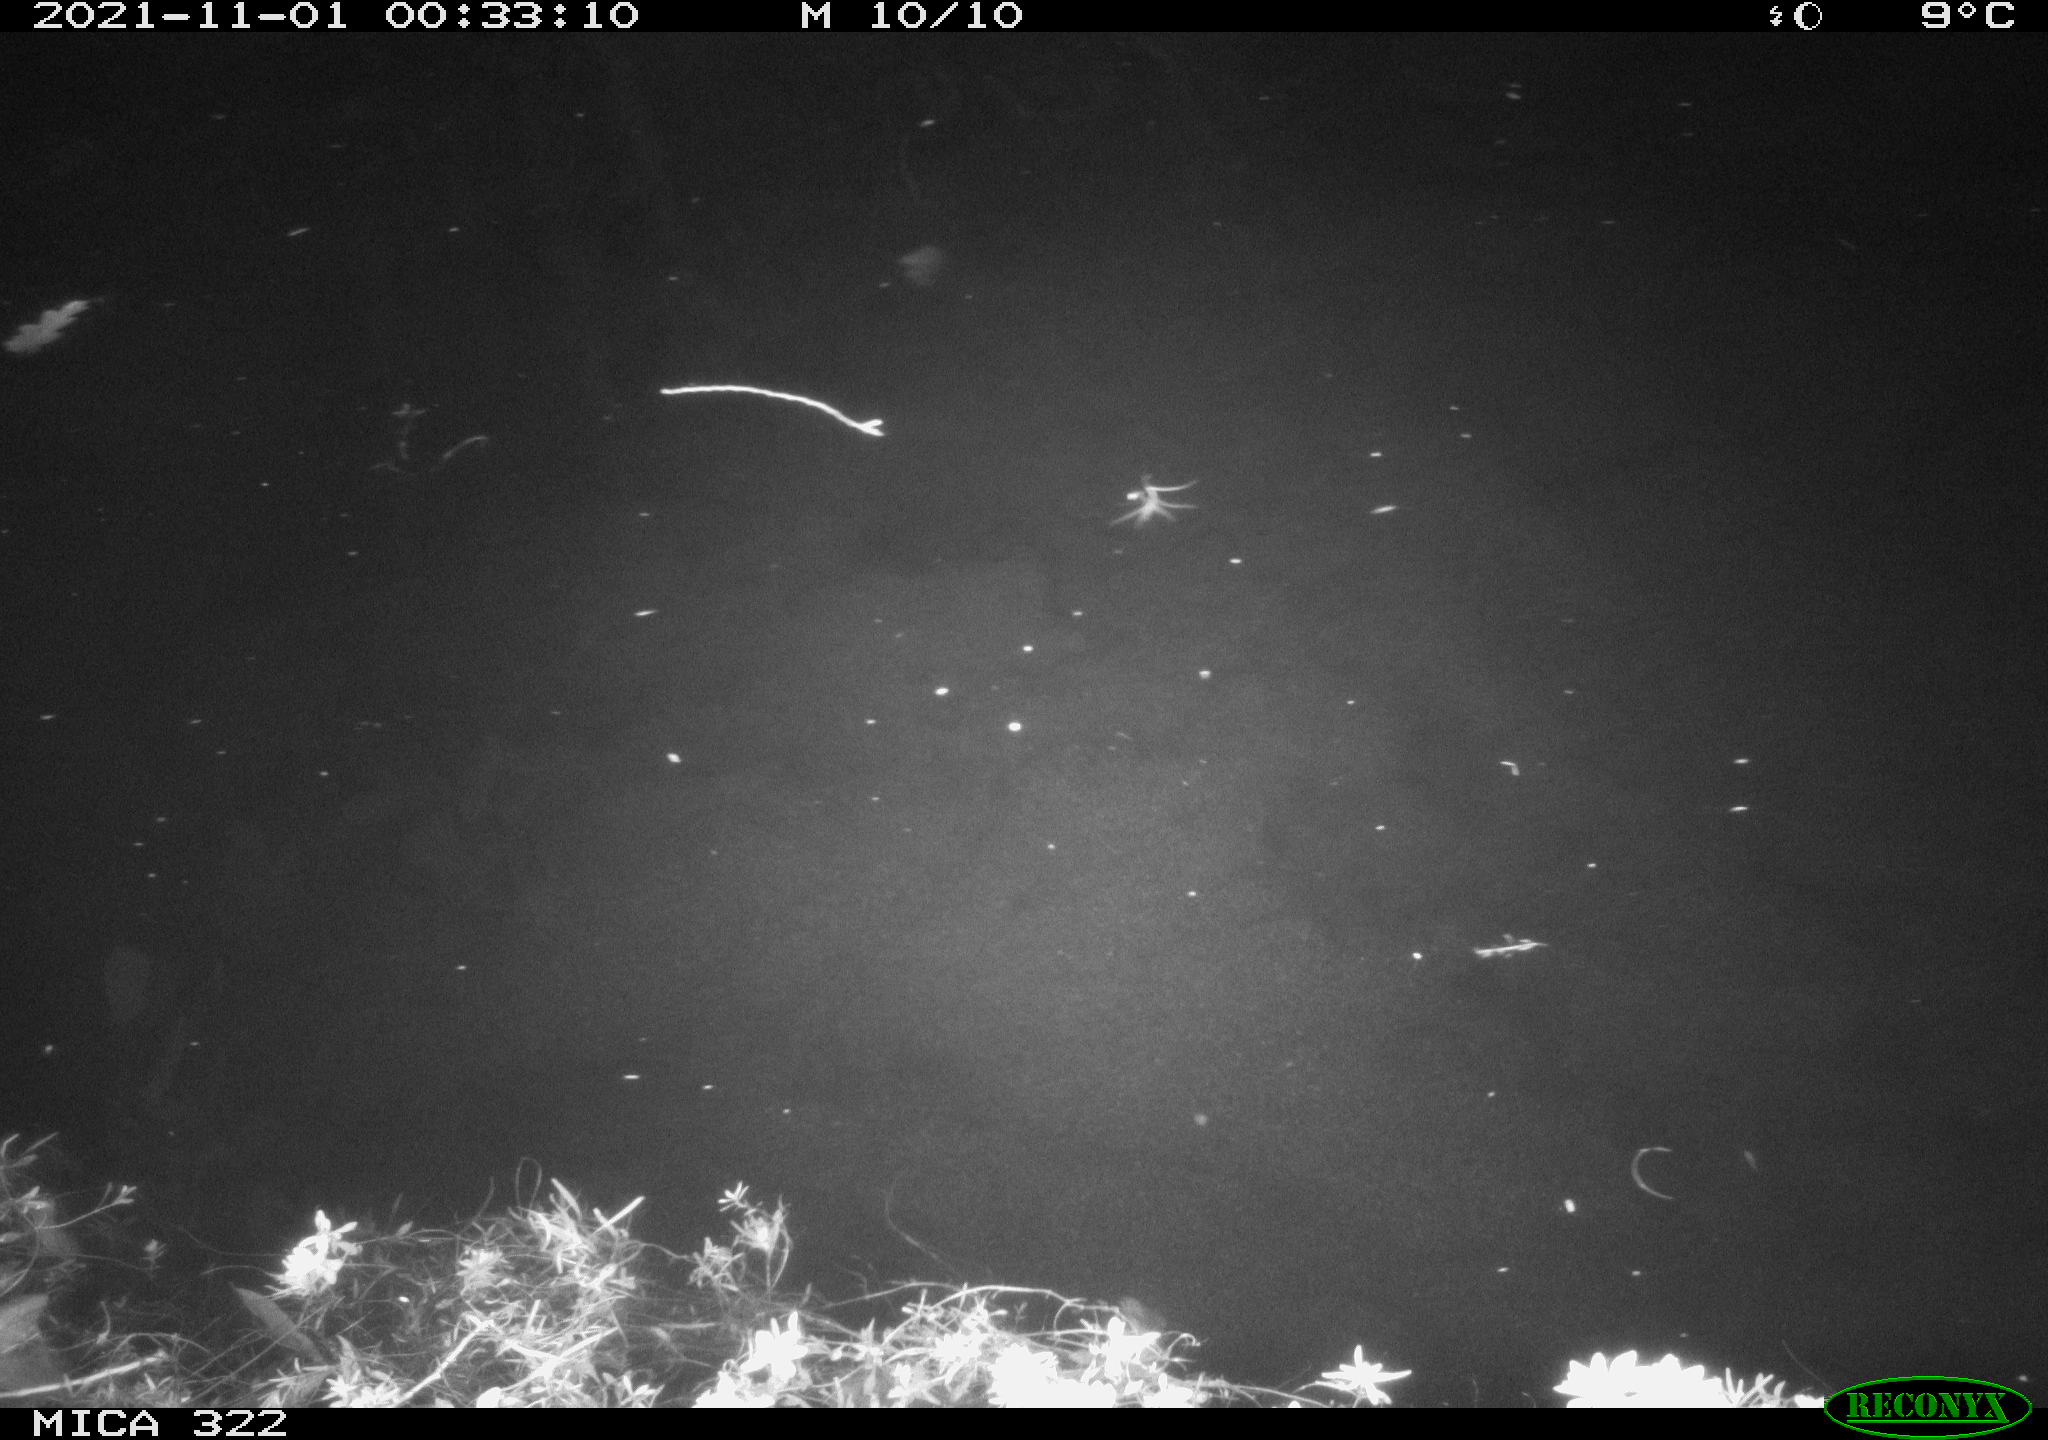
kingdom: Animalia
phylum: Chordata
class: Mammalia
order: Rodentia
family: Muridae
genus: Rattus
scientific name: Rattus norvegicus
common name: Brown rat
